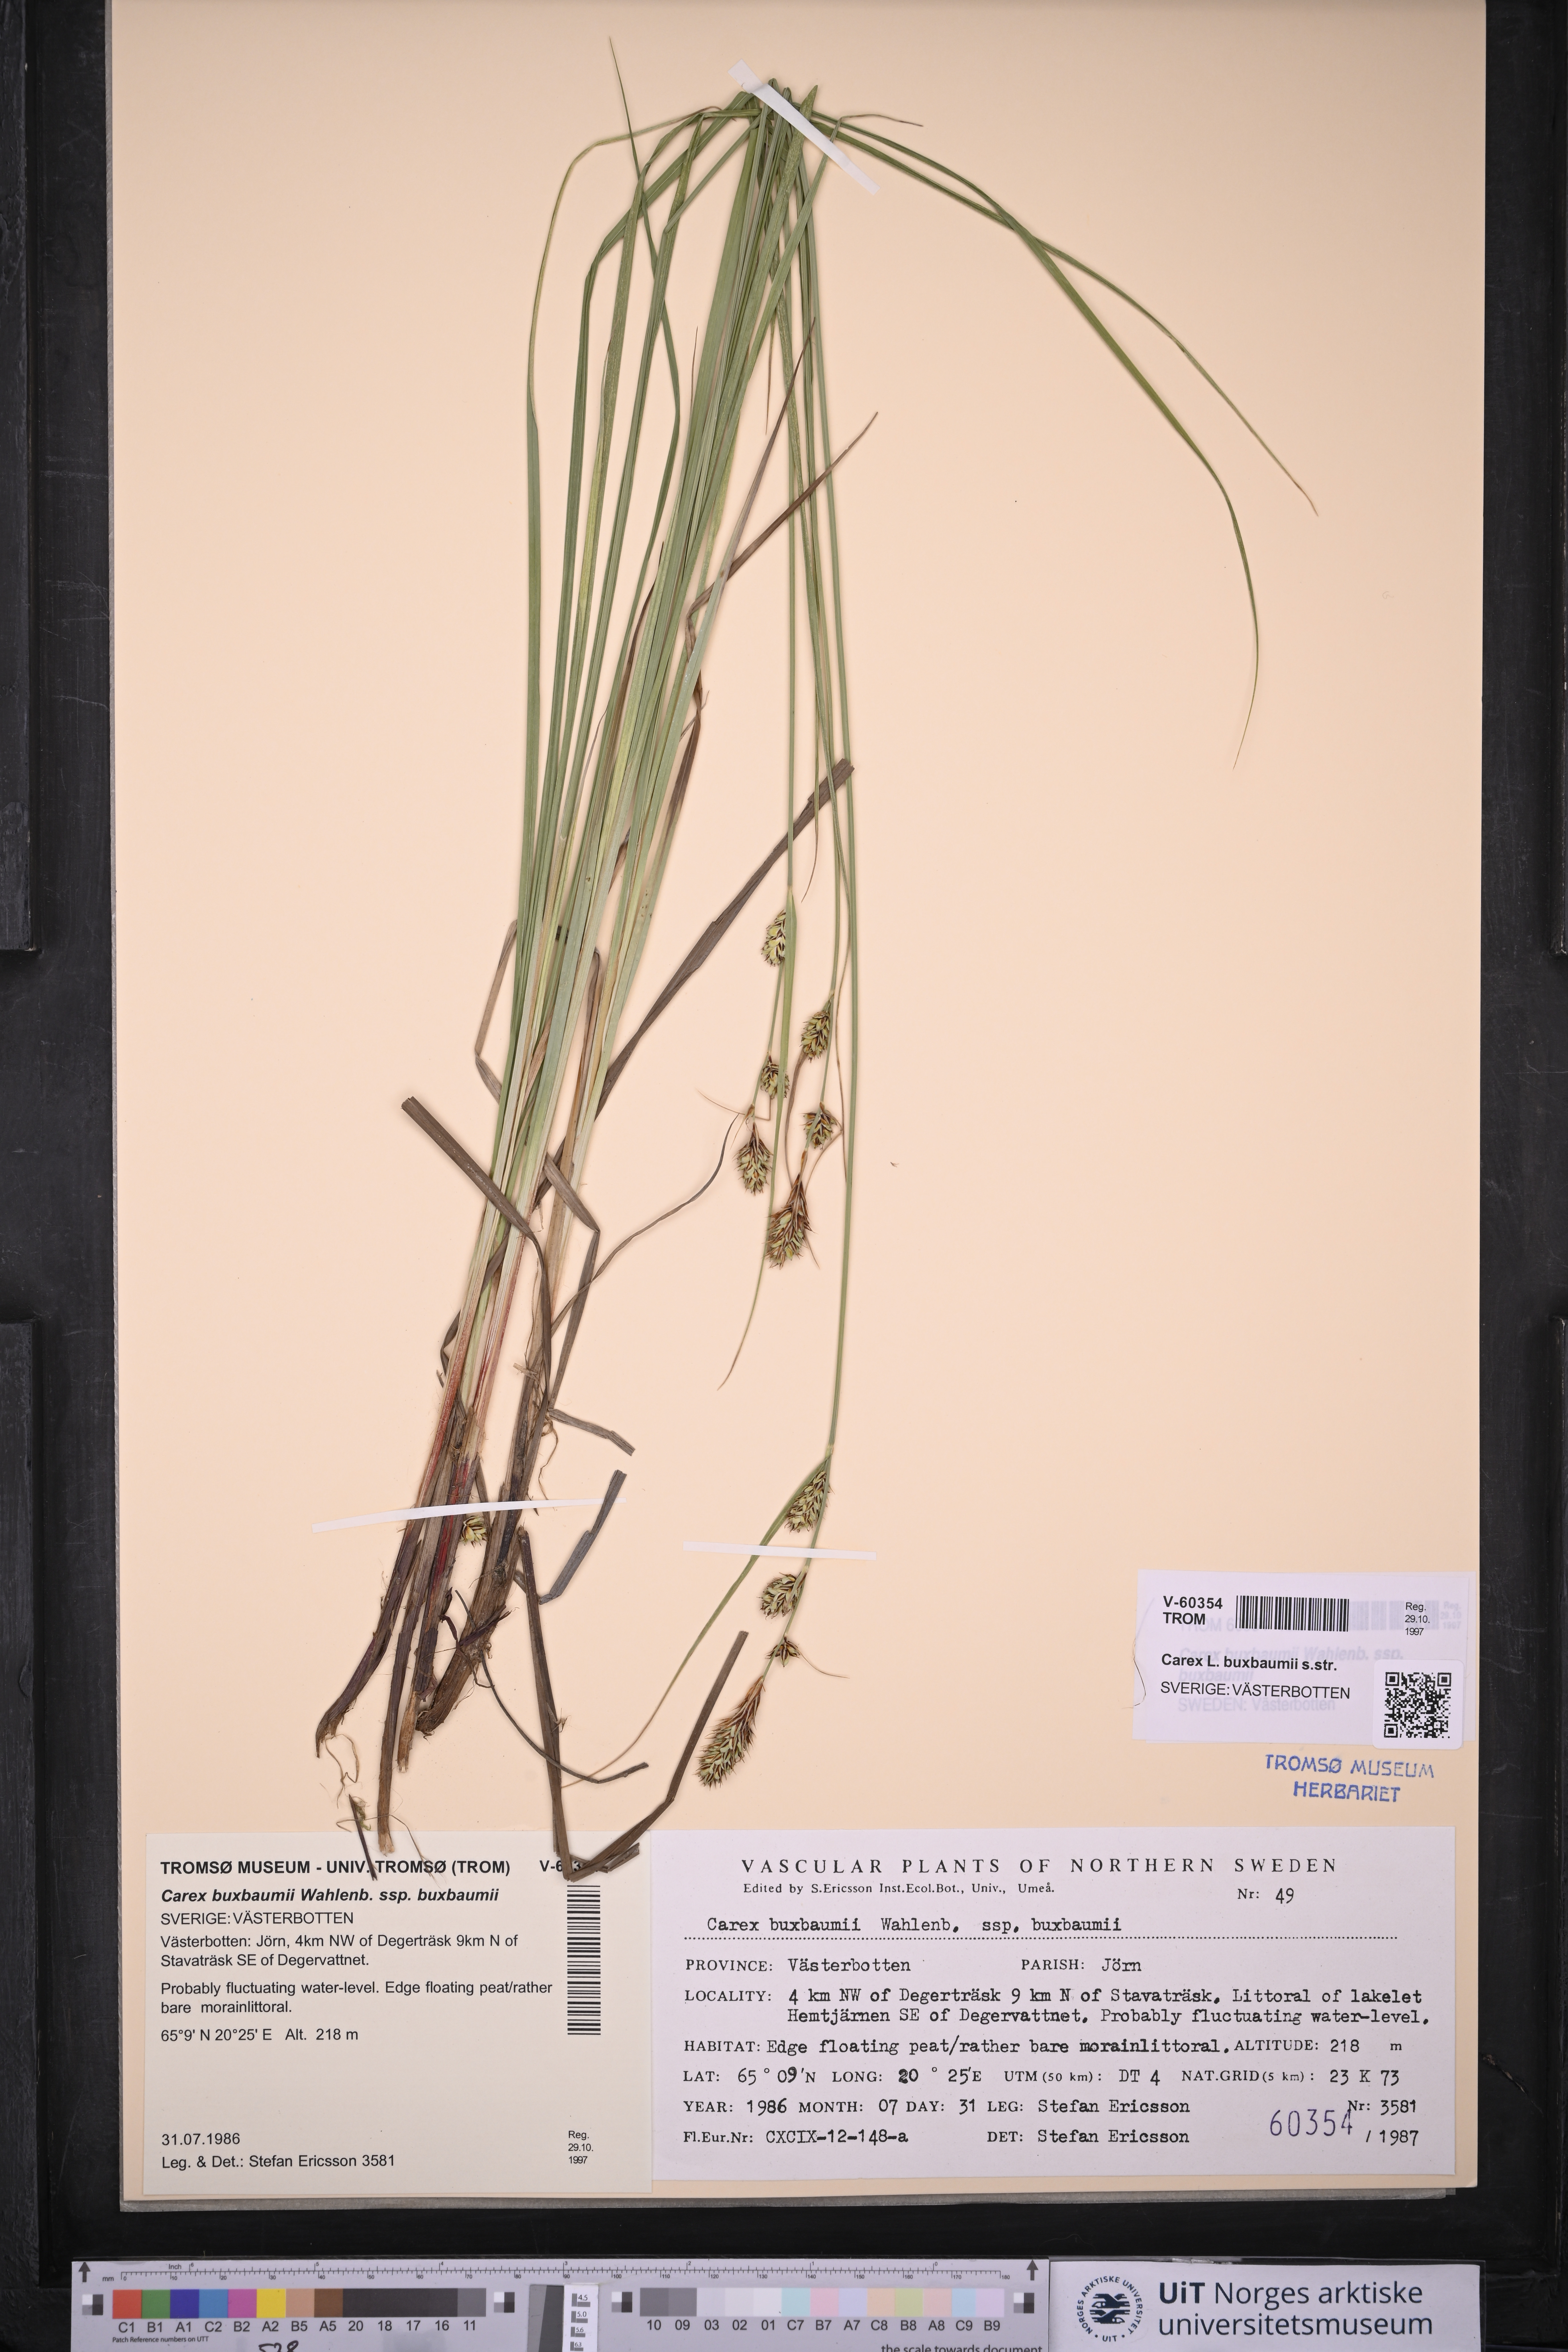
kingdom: Plantae
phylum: Tracheophyta
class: Liliopsida
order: Poales
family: Cyperaceae
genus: Carex
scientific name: Carex buxbaumii
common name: Club sedge
